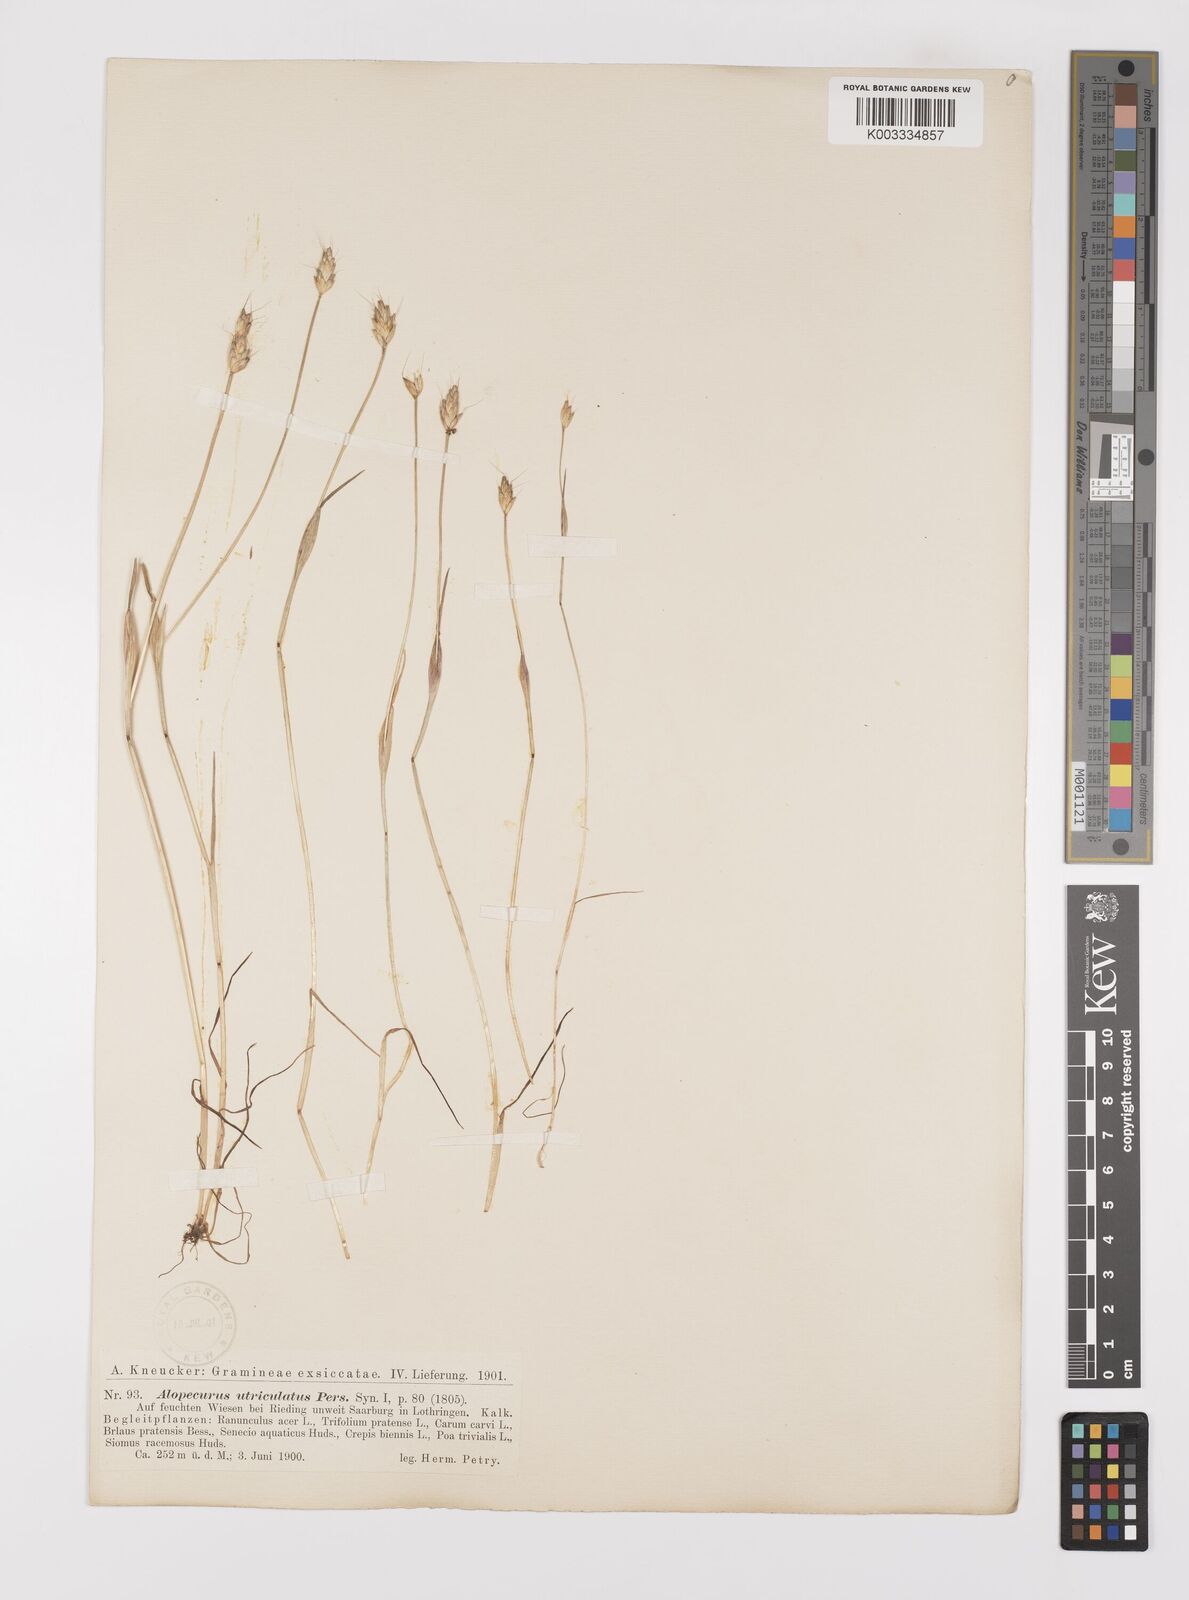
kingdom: Plantae
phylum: Tracheophyta
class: Liliopsida
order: Poales
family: Poaceae
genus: Alopecurus
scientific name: Alopecurus rendlei
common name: Rendle's meadow foxtail
